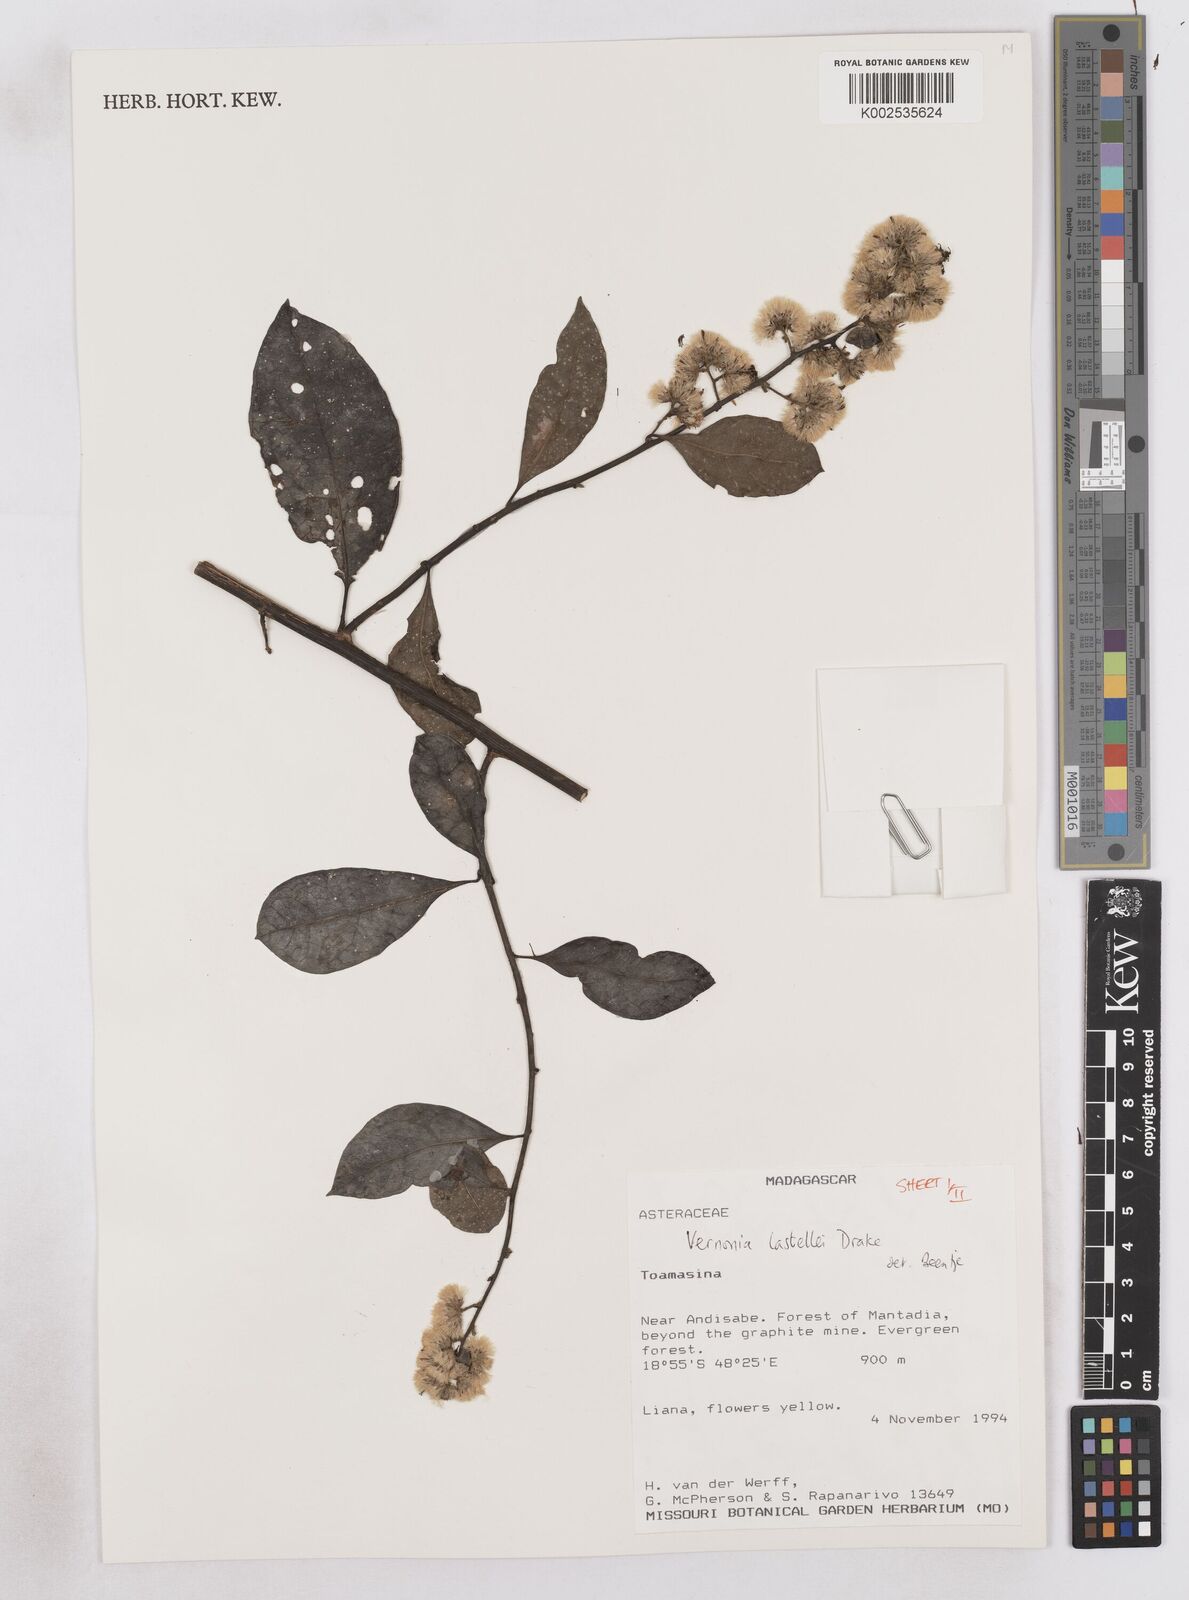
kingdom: Plantae
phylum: Tracheophyta
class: Magnoliopsida
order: Asterales
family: Asteraceae
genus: Distephanus
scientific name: Distephanus lastellei
